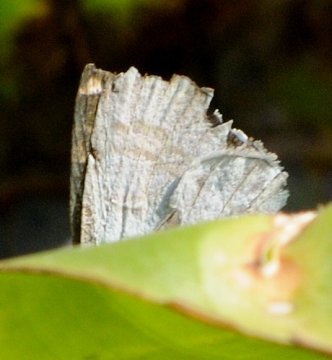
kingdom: Animalia
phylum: Arthropoda
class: Insecta
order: Lepidoptera
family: Lycaenidae
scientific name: Lycaenidae
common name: Gossamerwings
